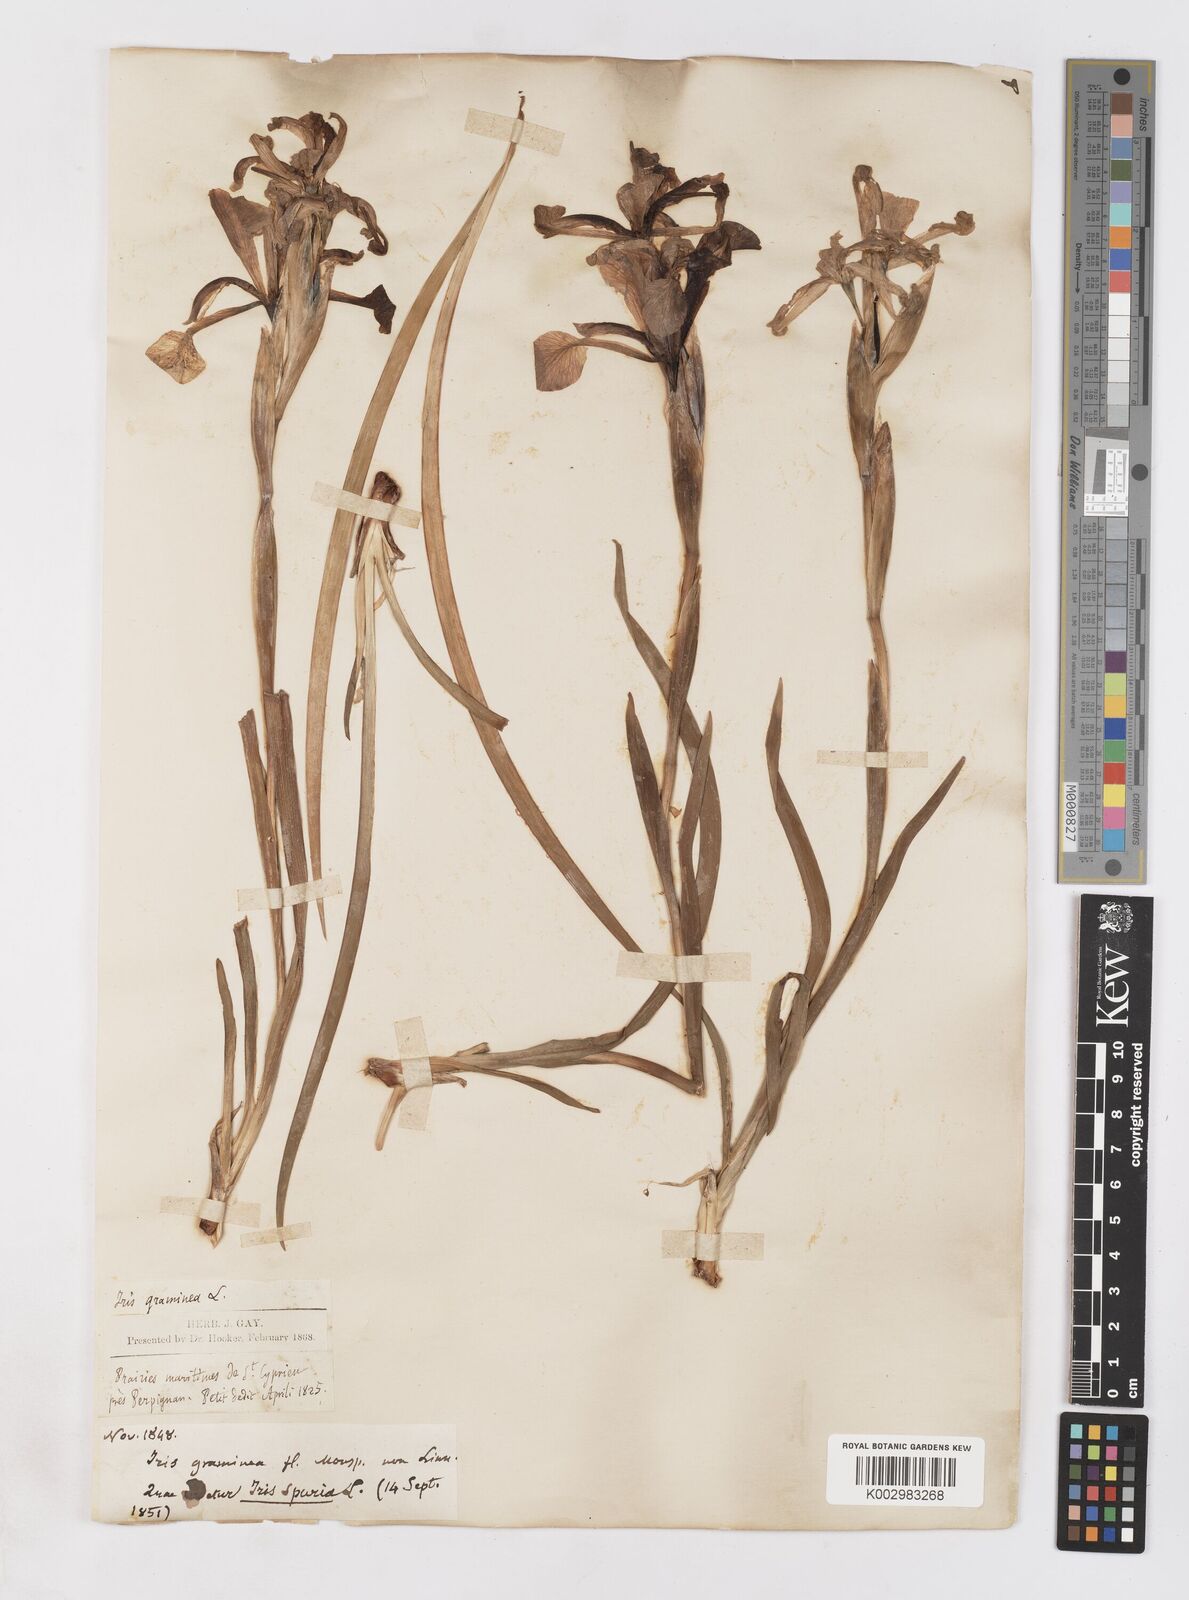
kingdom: Plantae
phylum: Tracheophyta
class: Liliopsida
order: Asparagales
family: Iridaceae
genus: Iris
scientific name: Iris spuria
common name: Blue iris
